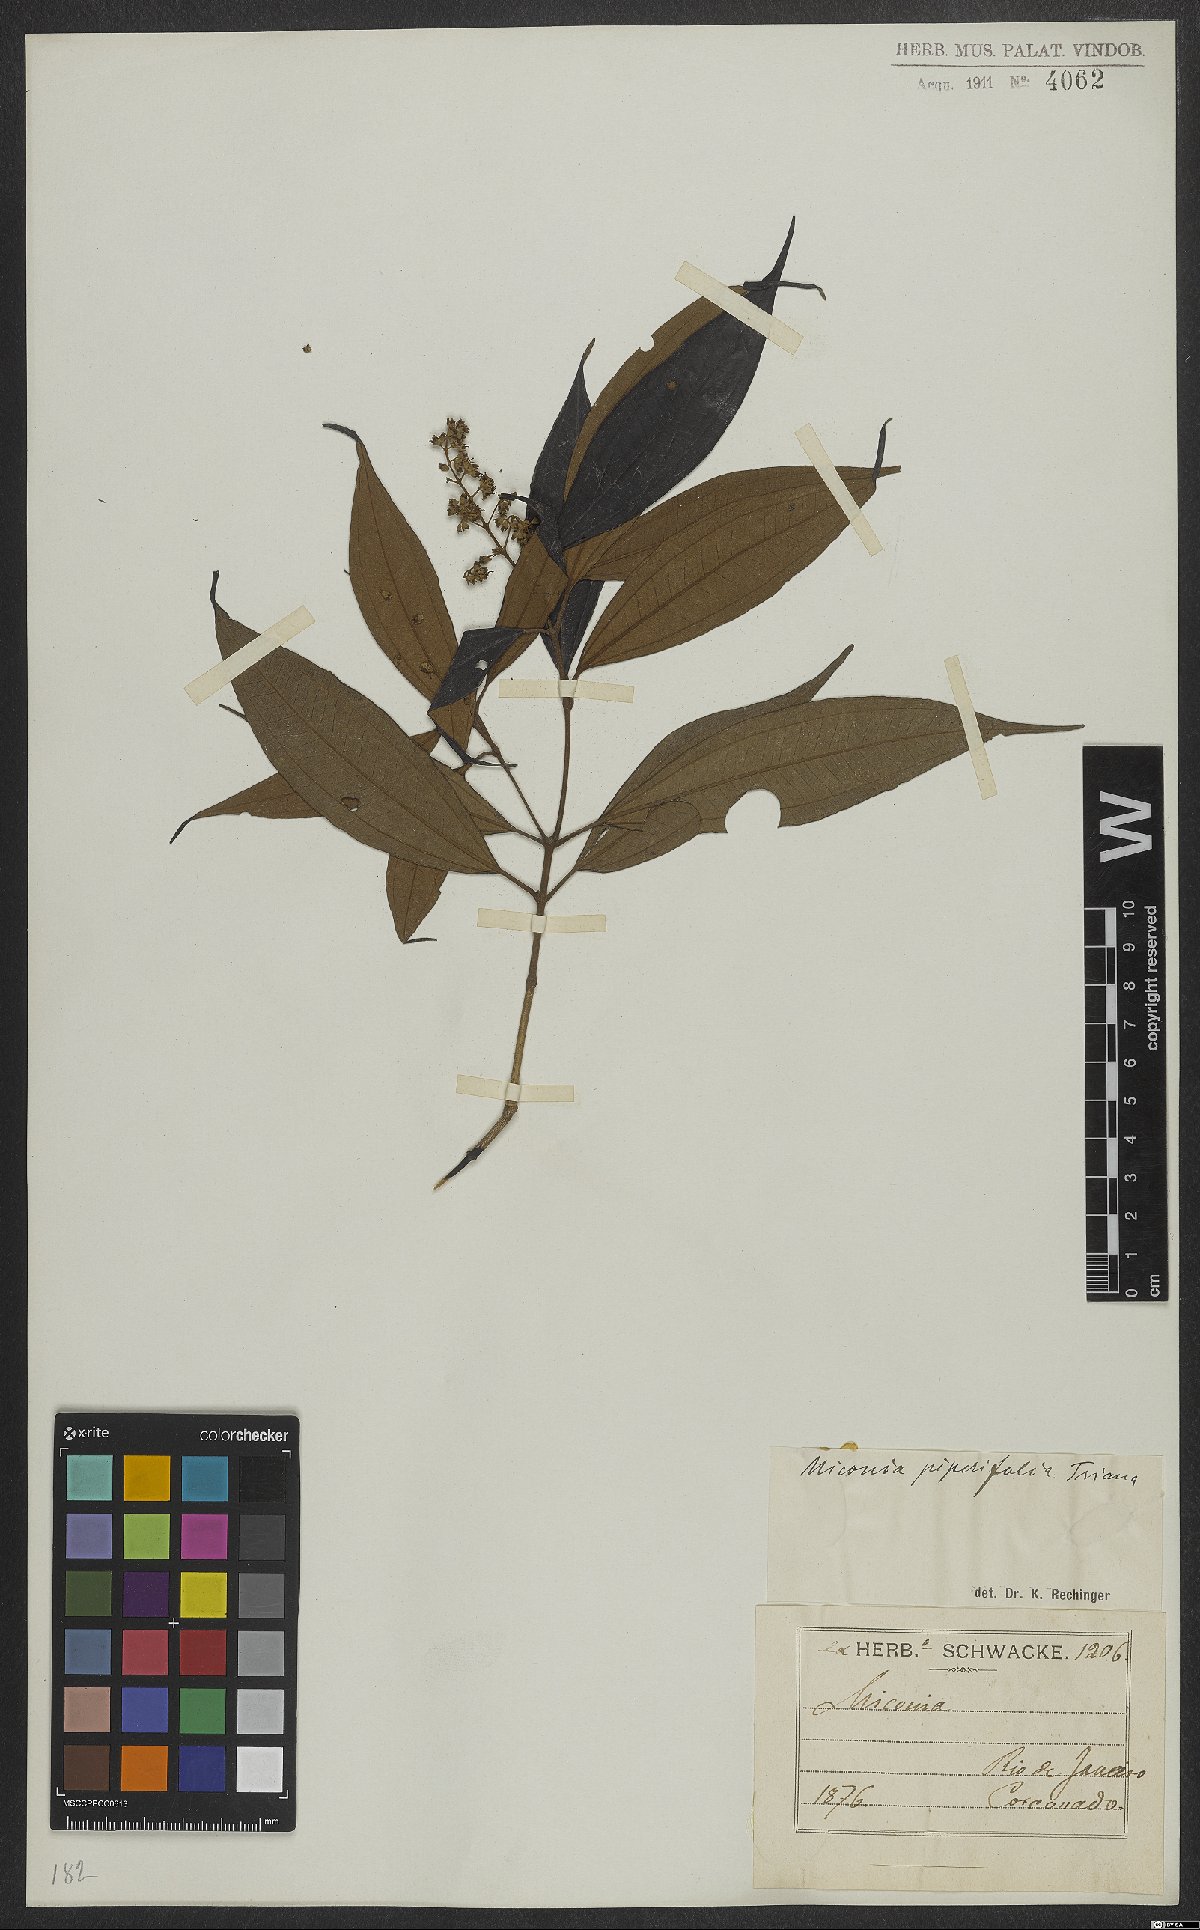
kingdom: Plantae
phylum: Tracheophyta
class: Magnoliopsida
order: Myrtales
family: Melastomataceae
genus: Miconia
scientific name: Miconia piperifolia
